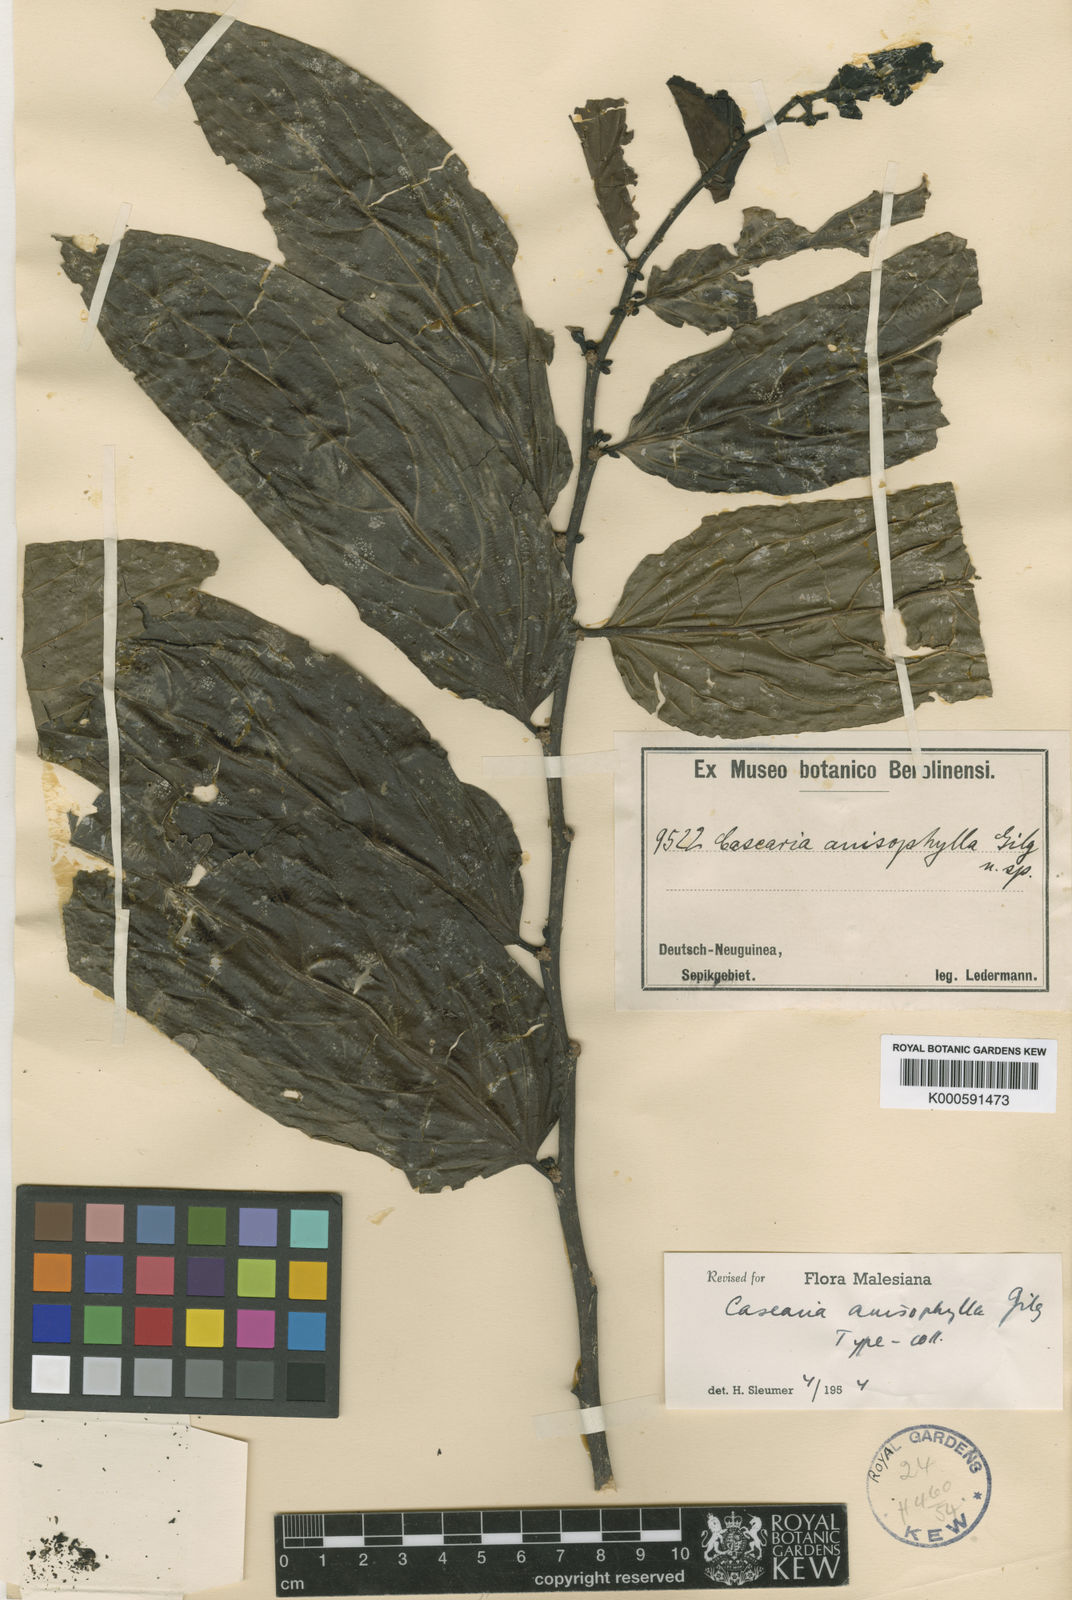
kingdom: Plantae
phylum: Tracheophyta
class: Magnoliopsida
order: Malpighiales
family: Salicaceae
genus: Casearia
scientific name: Casearia anisophylla
